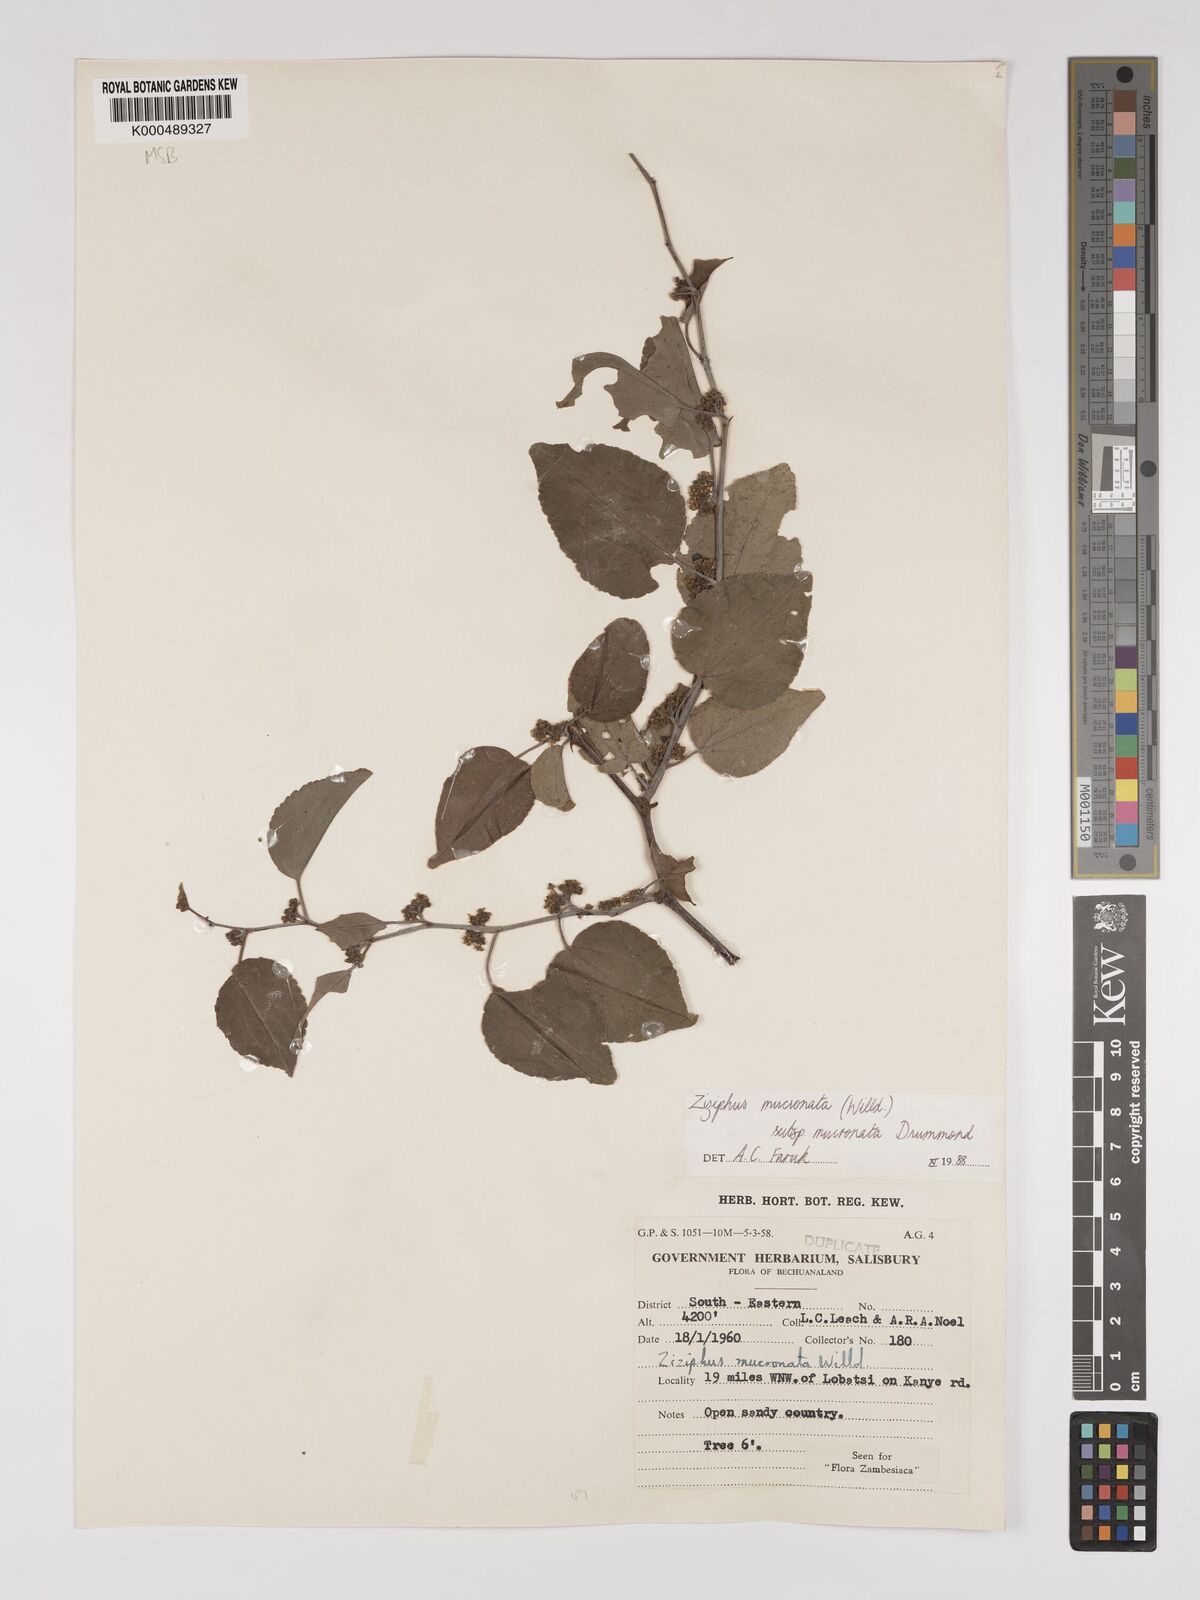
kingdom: Plantae
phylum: Tracheophyta
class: Magnoliopsida
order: Rosales
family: Rhamnaceae
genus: Ziziphus
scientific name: Ziziphus mucronata
